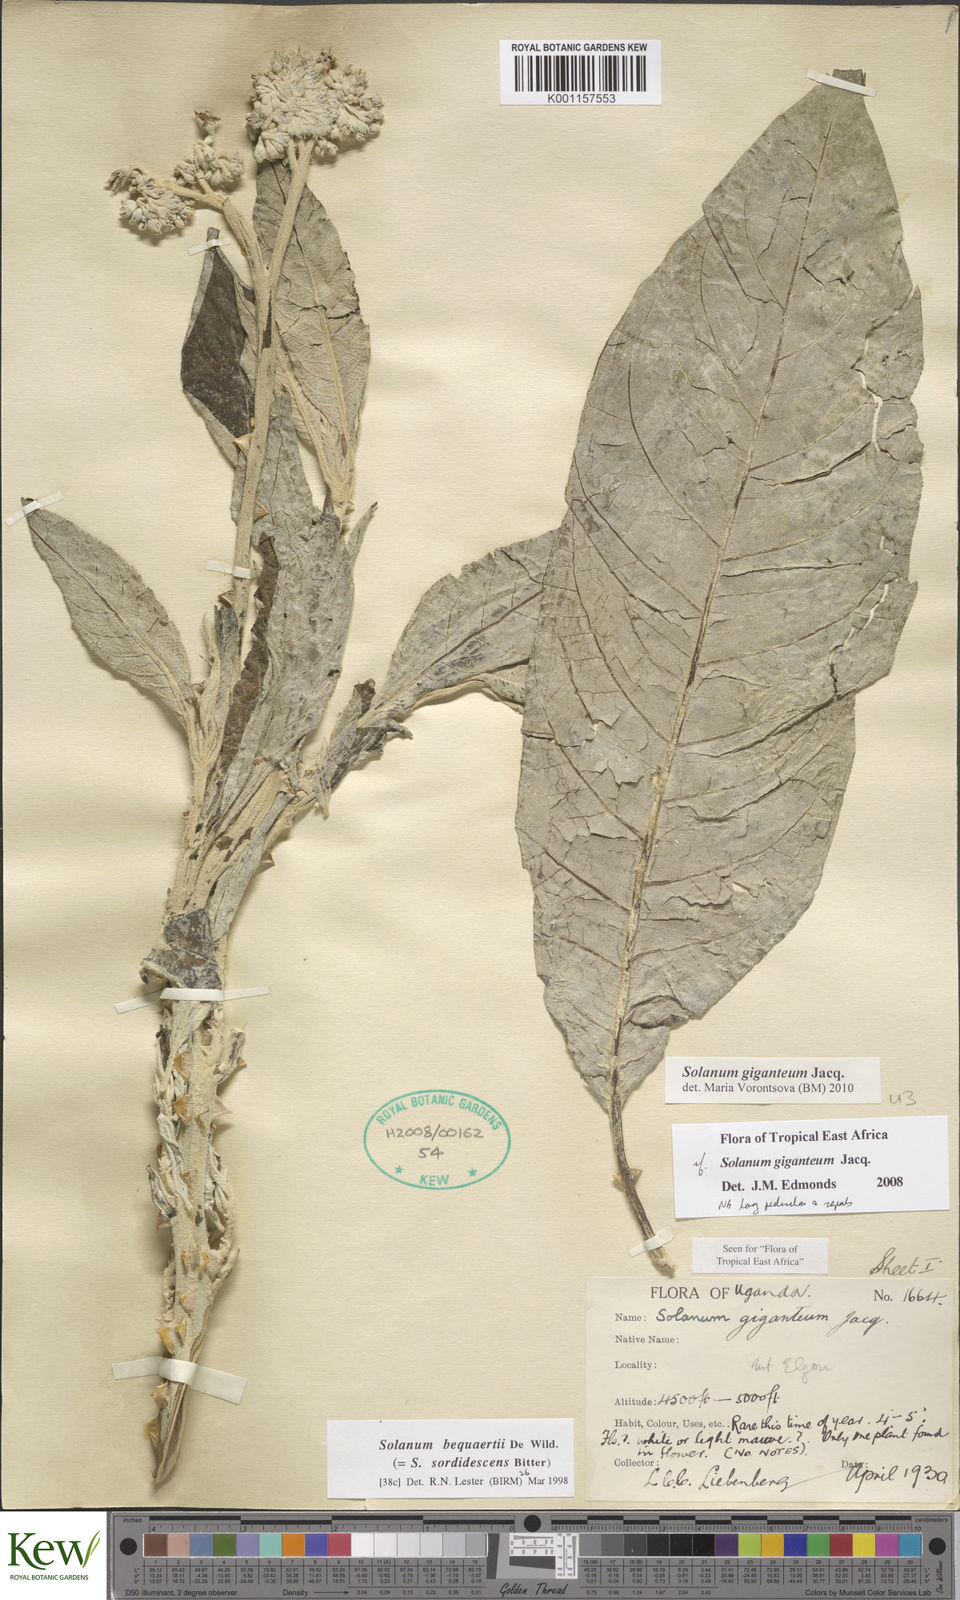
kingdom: Plantae
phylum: Tracheophyta
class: Magnoliopsida
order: Solanales
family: Solanaceae
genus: Solanum
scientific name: Solanum giganteum
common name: Healing-leaf-tree
